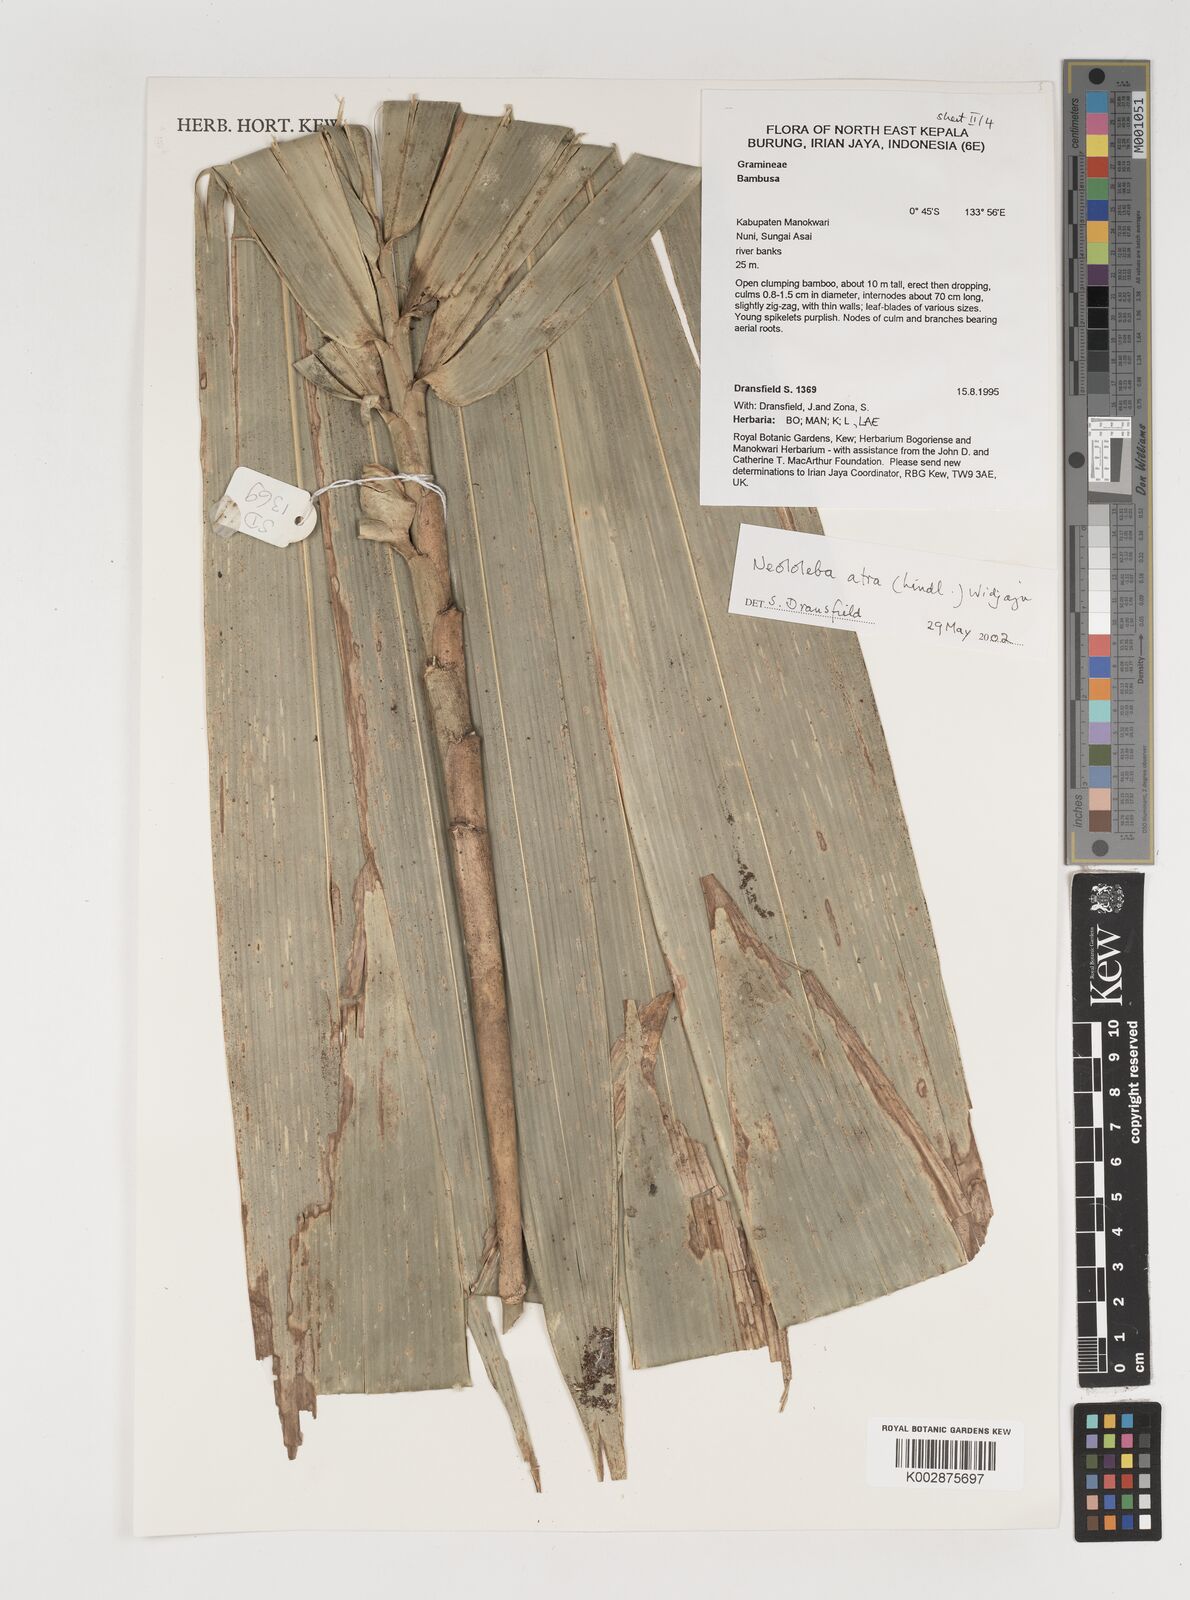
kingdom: Plantae
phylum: Tracheophyta
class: Liliopsida
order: Poales
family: Poaceae
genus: Neololeba
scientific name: Neololeba atra
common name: Cape bamboo
